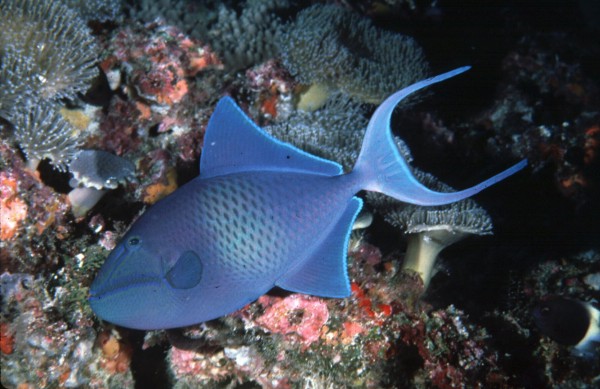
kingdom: Animalia
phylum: Chordata
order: Tetraodontiformes
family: Balistidae
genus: Odonus
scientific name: Odonus niger
